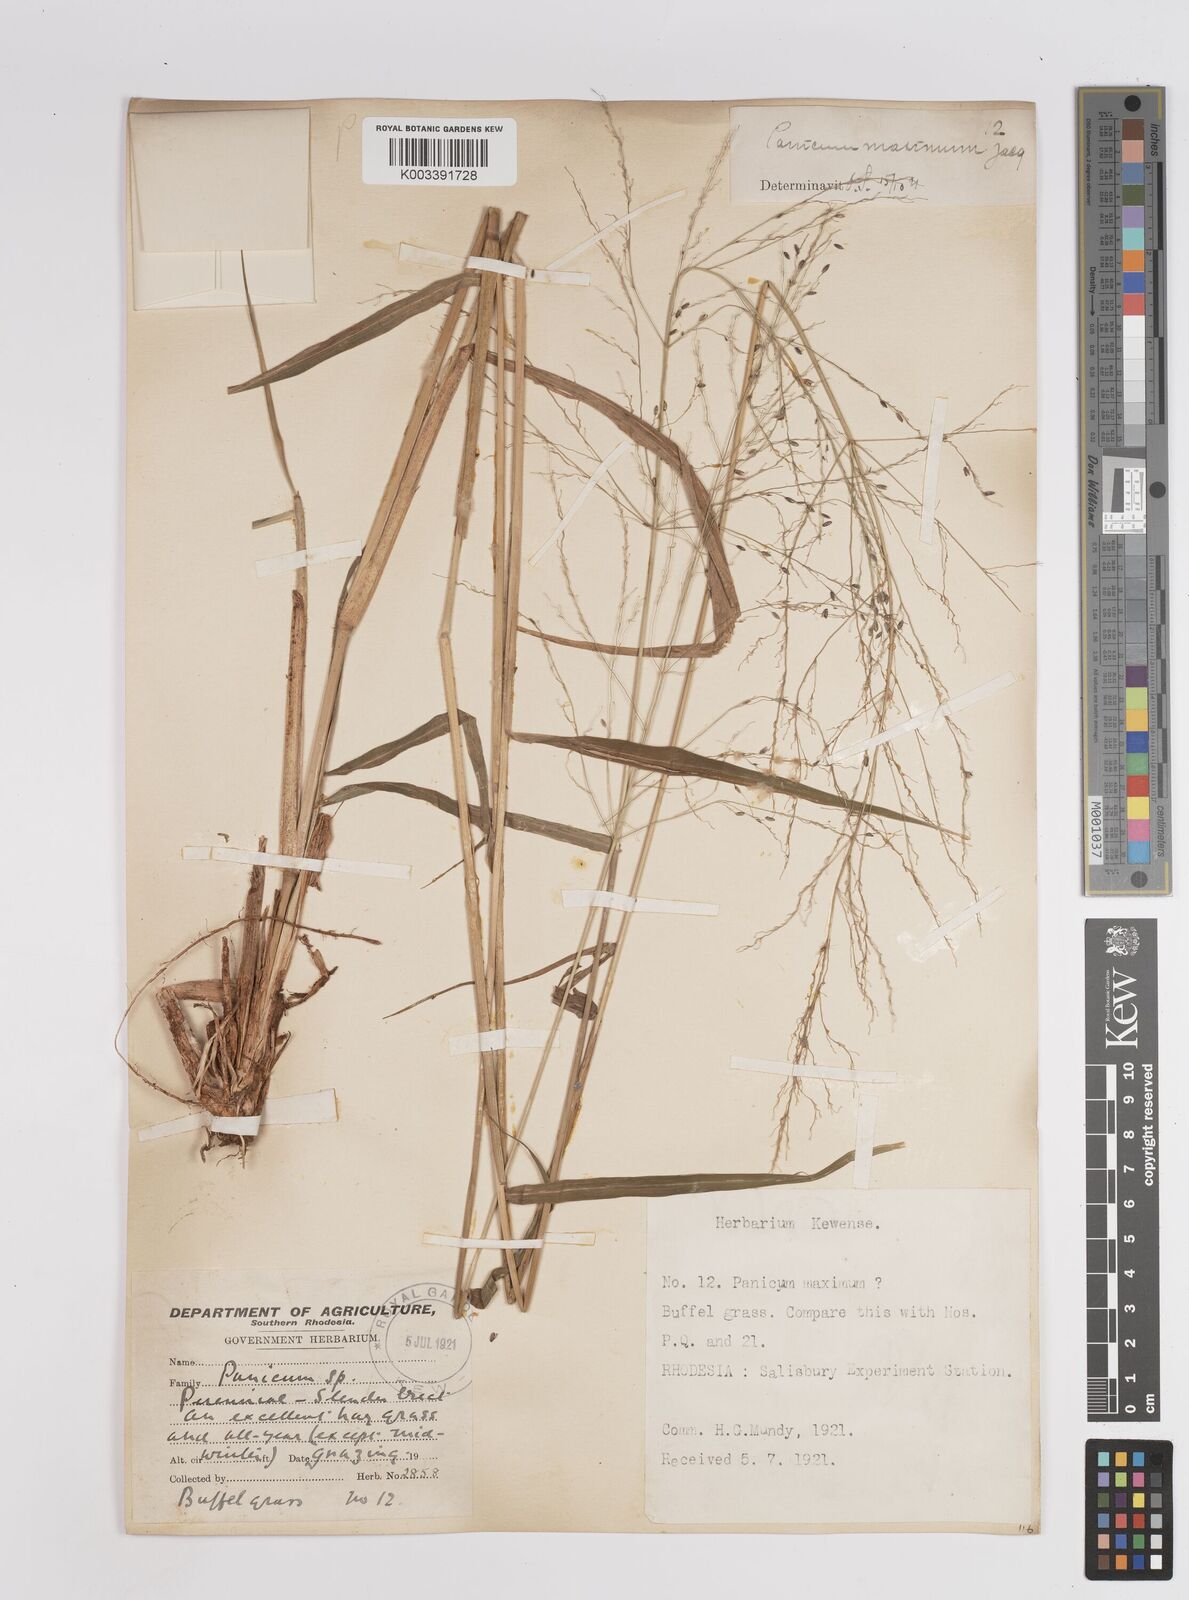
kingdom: Plantae
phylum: Tracheophyta
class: Liliopsida
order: Poales
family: Poaceae
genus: Megathyrsus
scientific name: Megathyrsus maximus
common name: Guineagrass
